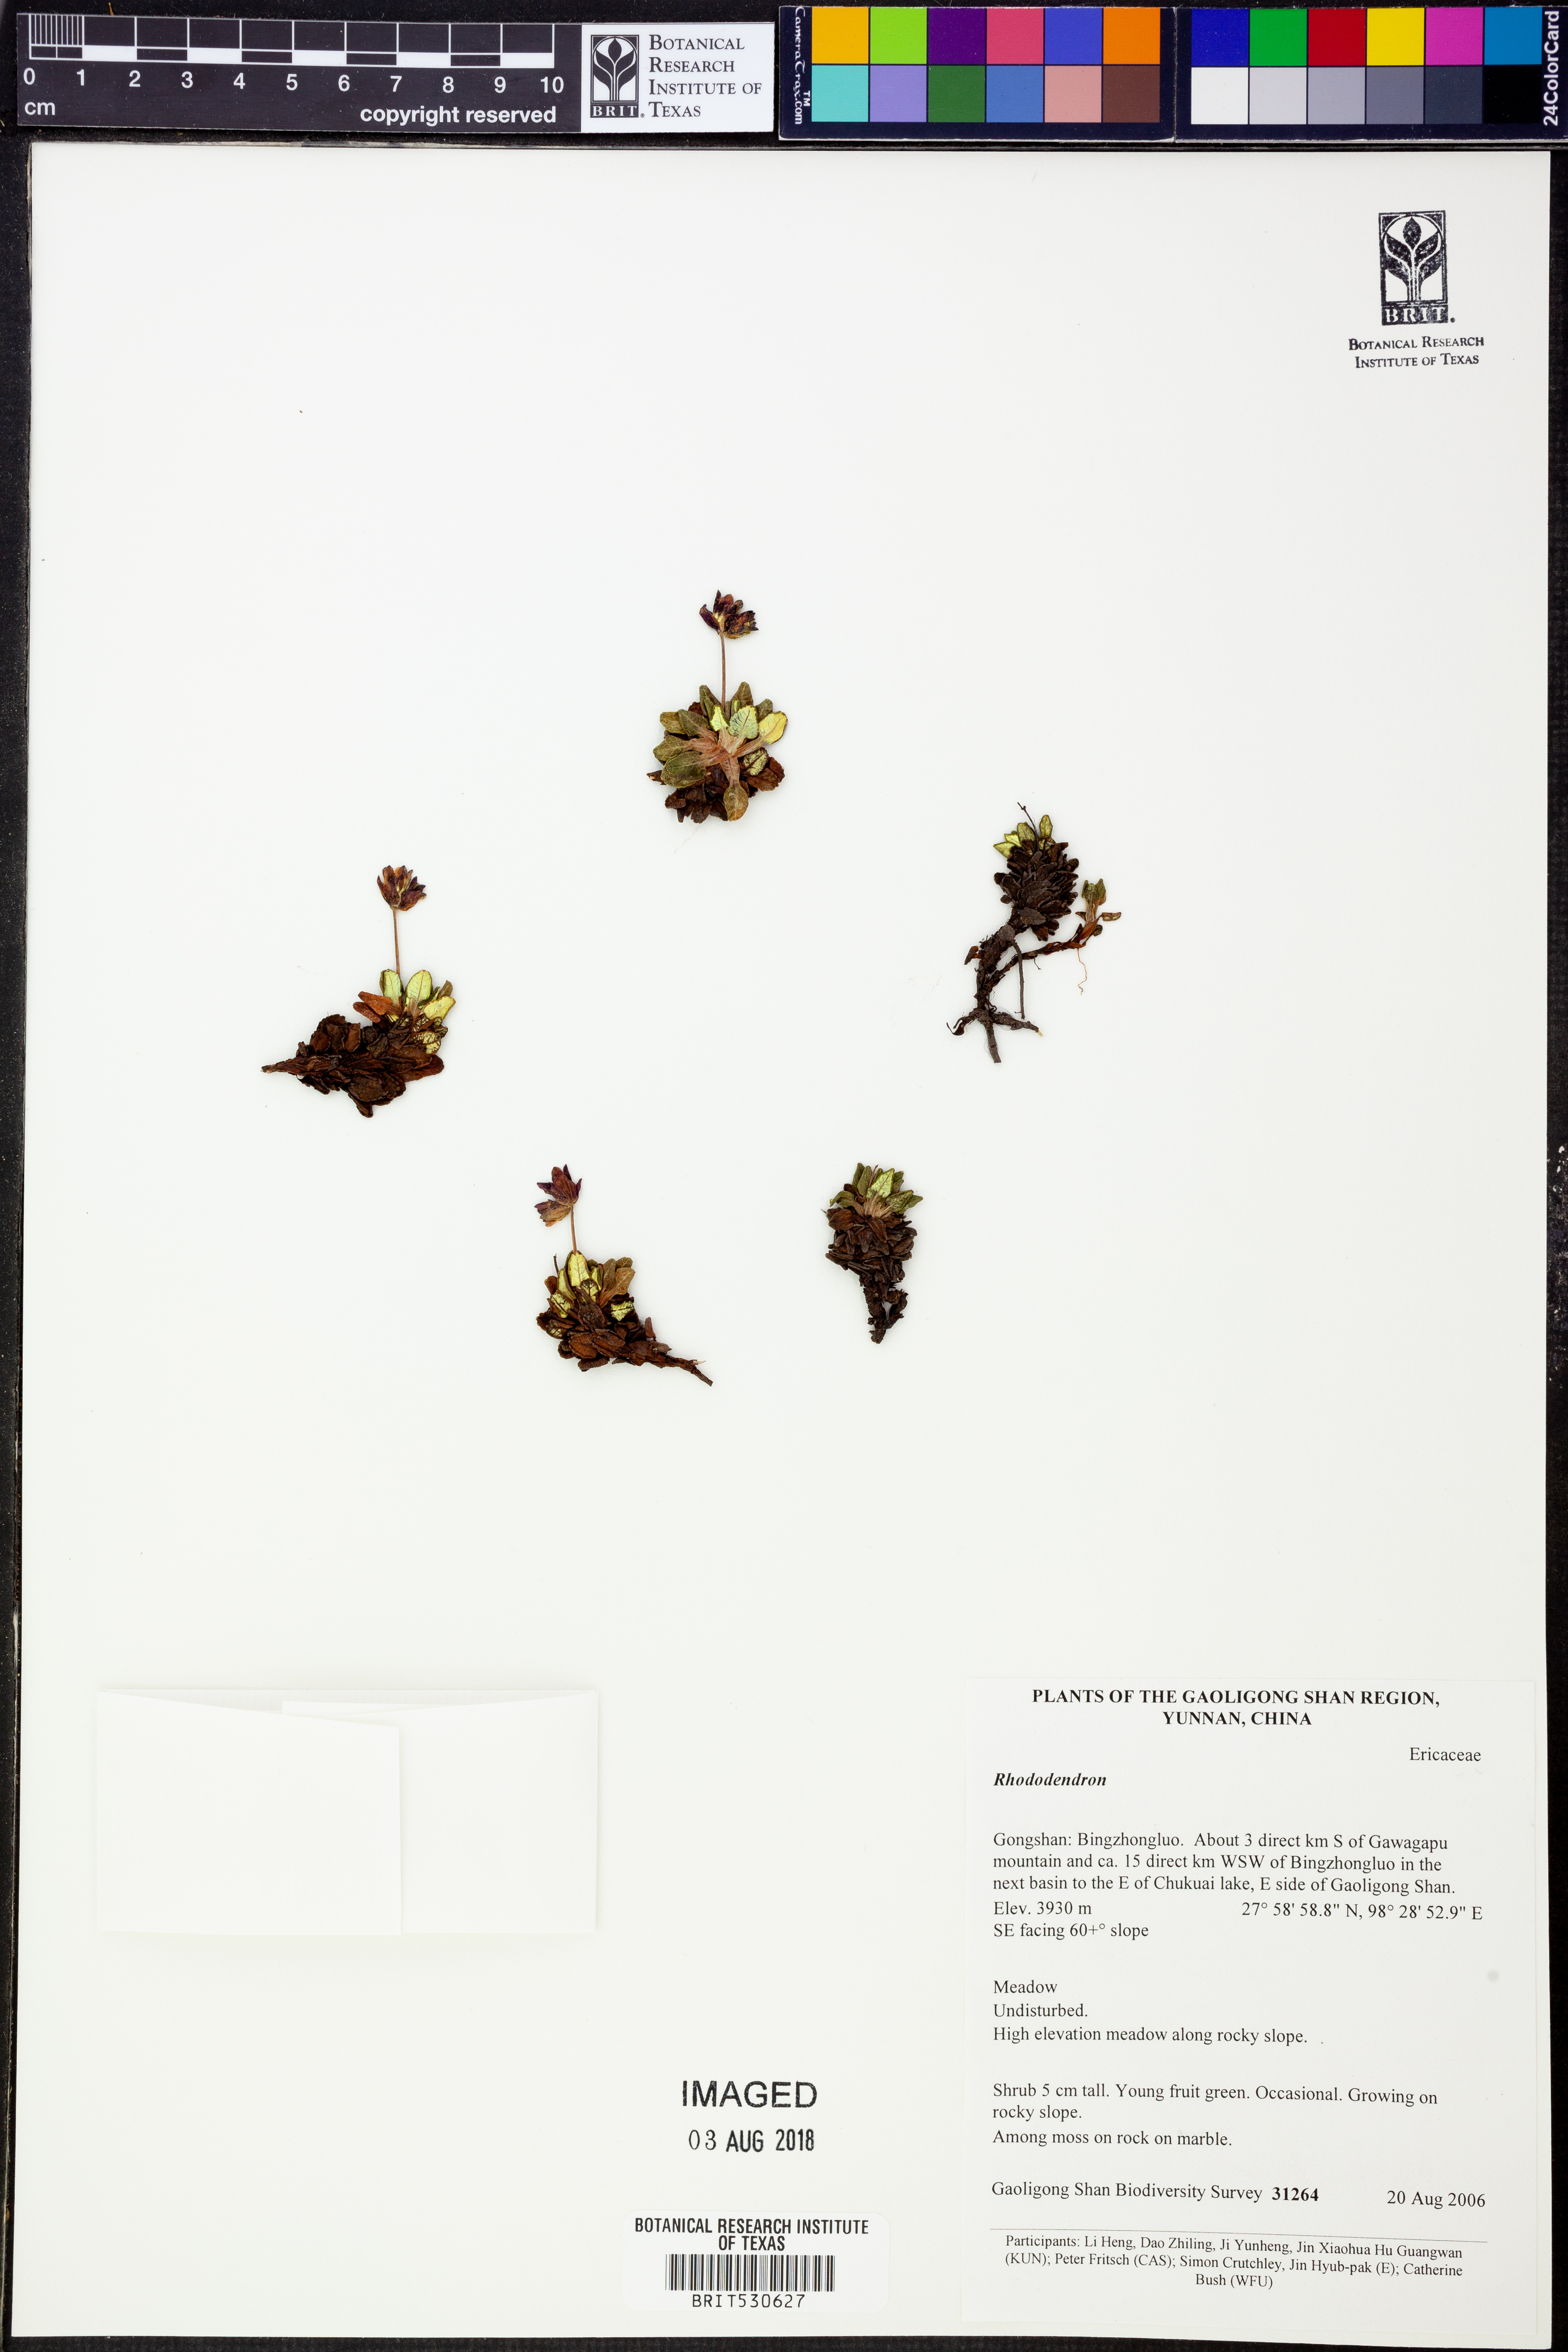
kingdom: Plantae
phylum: Tracheophyta
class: Magnoliopsida
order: Ericales
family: Ericaceae
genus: Rhododendron
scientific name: Rhododendron
